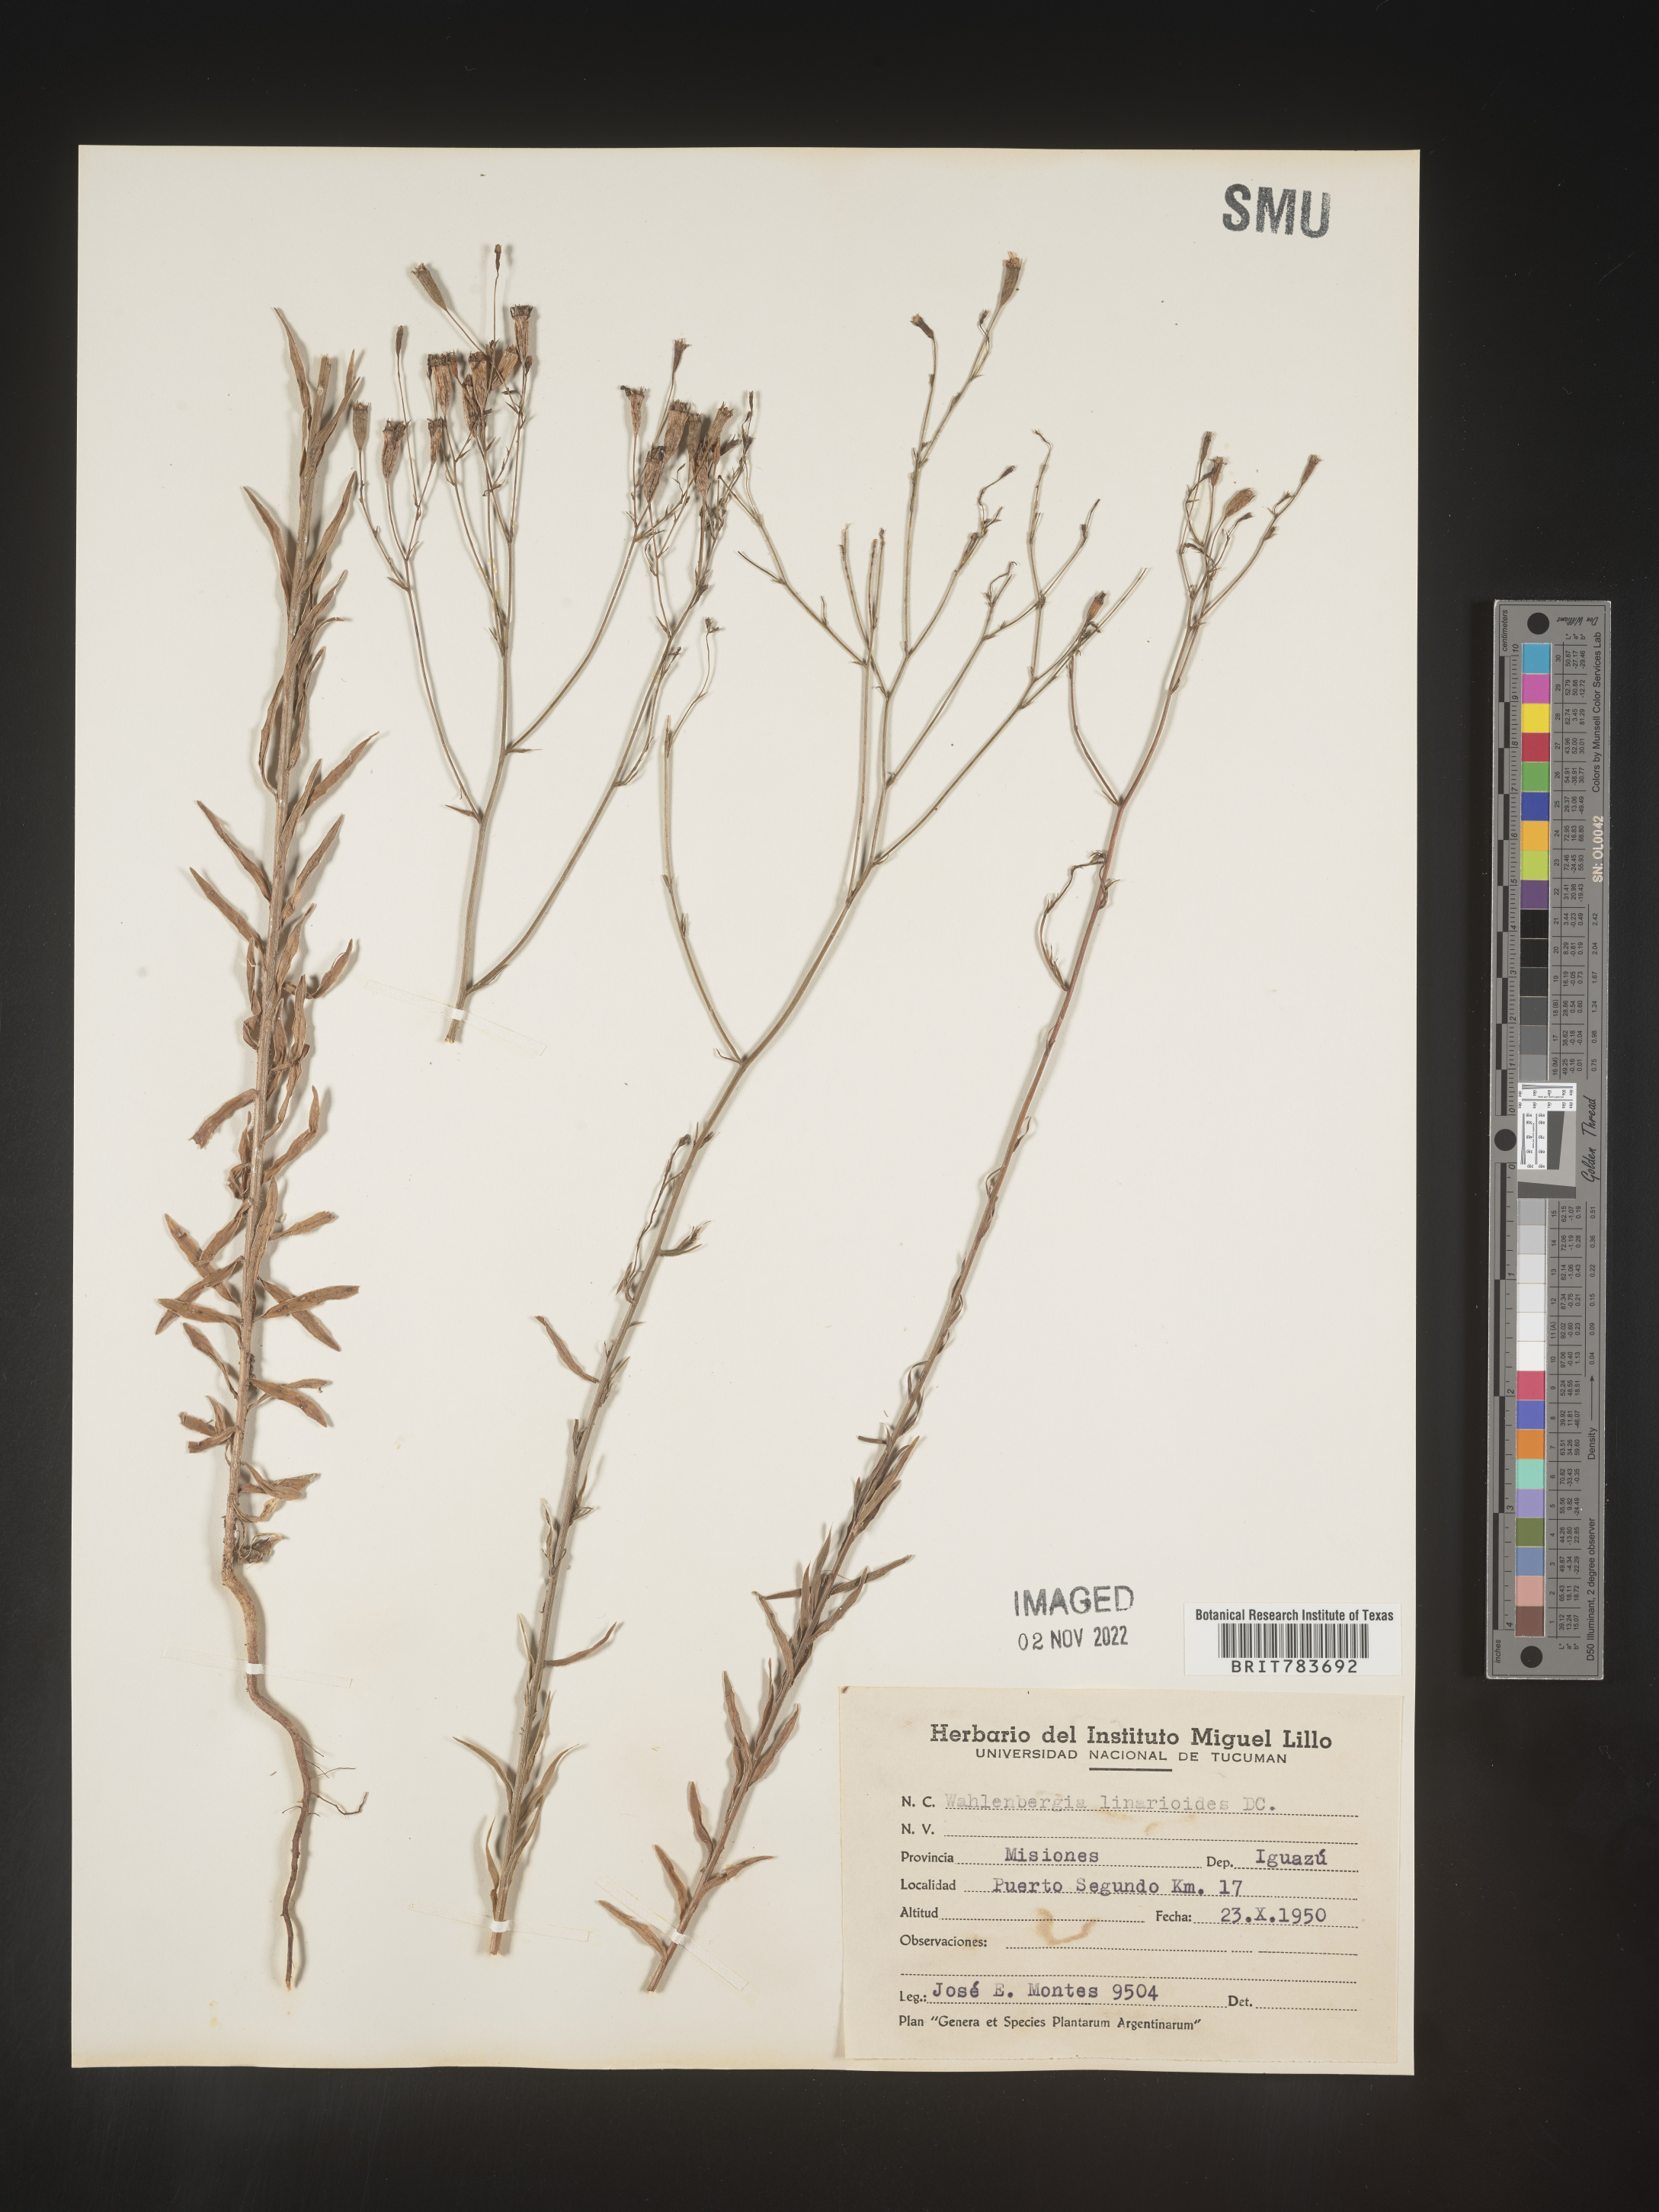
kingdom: Plantae
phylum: Tracheophyta
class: Magnoliopsida
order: Asterales
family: Campanulaceae
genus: Wahlenbergia
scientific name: Wahlenbergia
